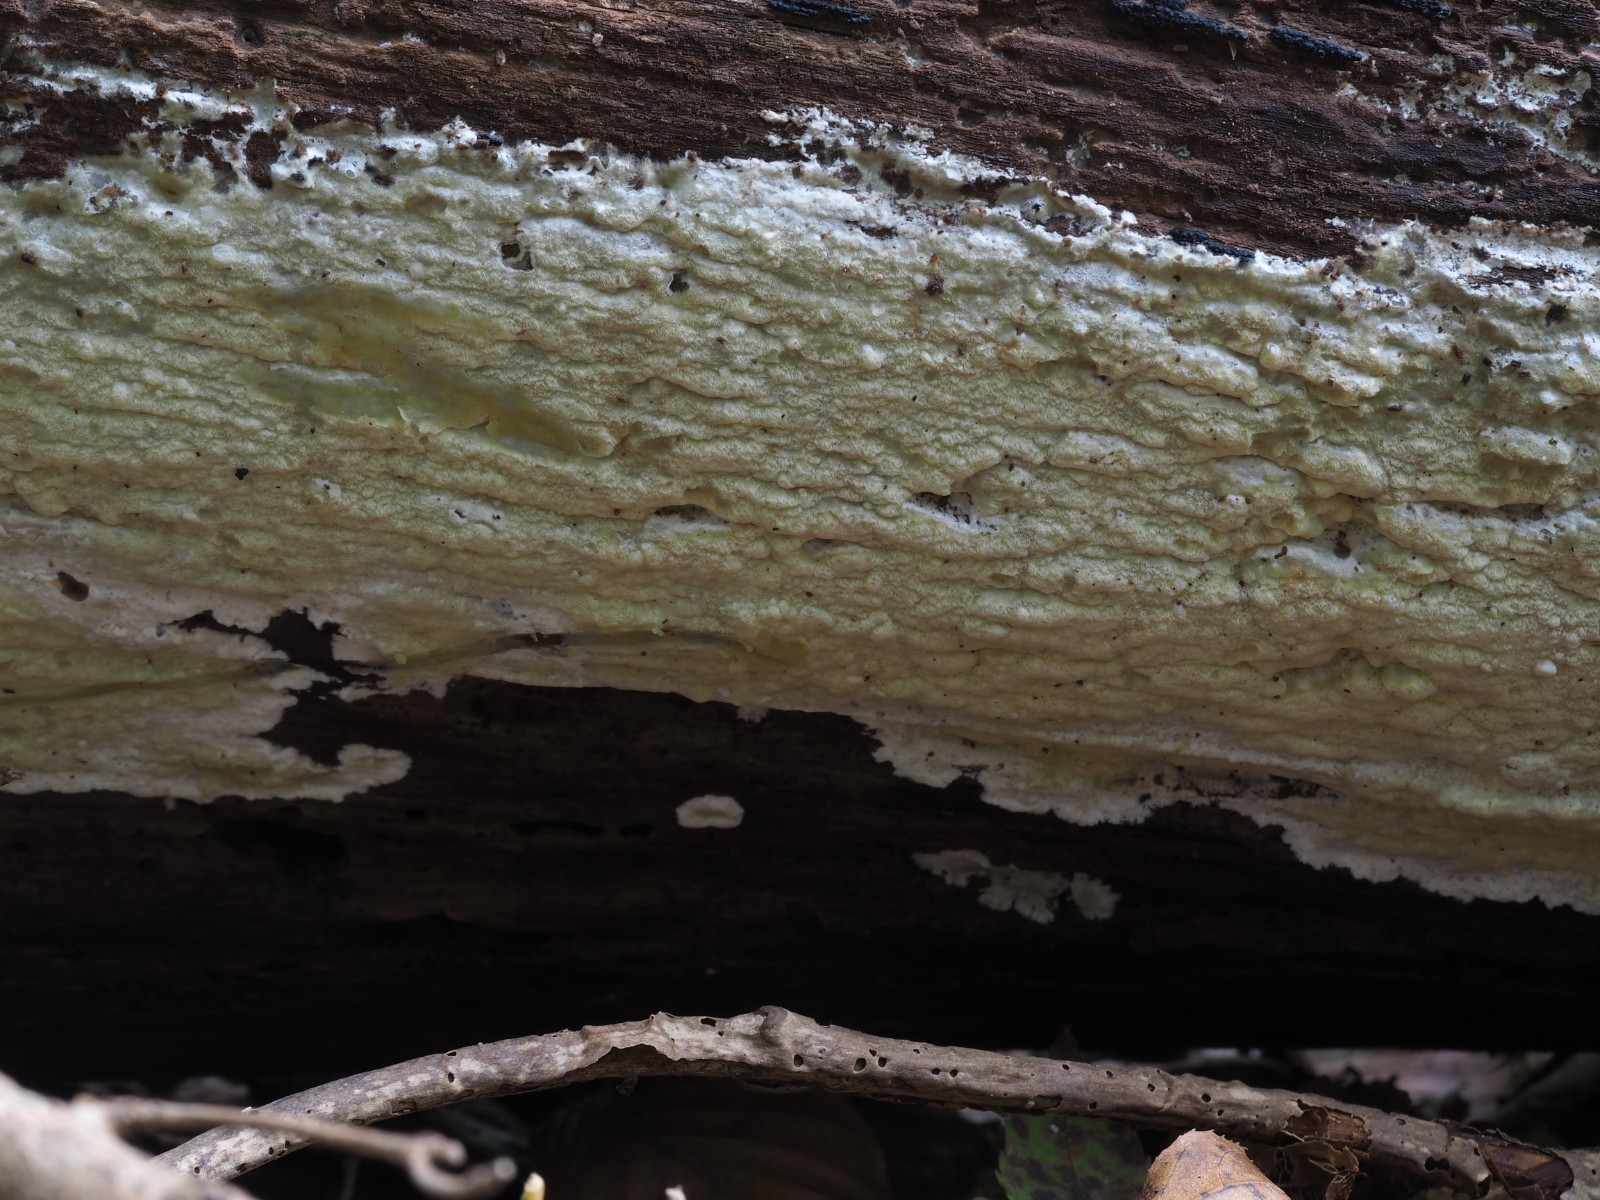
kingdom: Fungi
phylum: Basidiomycota
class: Agaricomycetes
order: Polyporales
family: Irpicaceae
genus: Gloeoporus
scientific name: Gloeoporus pannocinctus
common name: grøngul foldporesvamp
